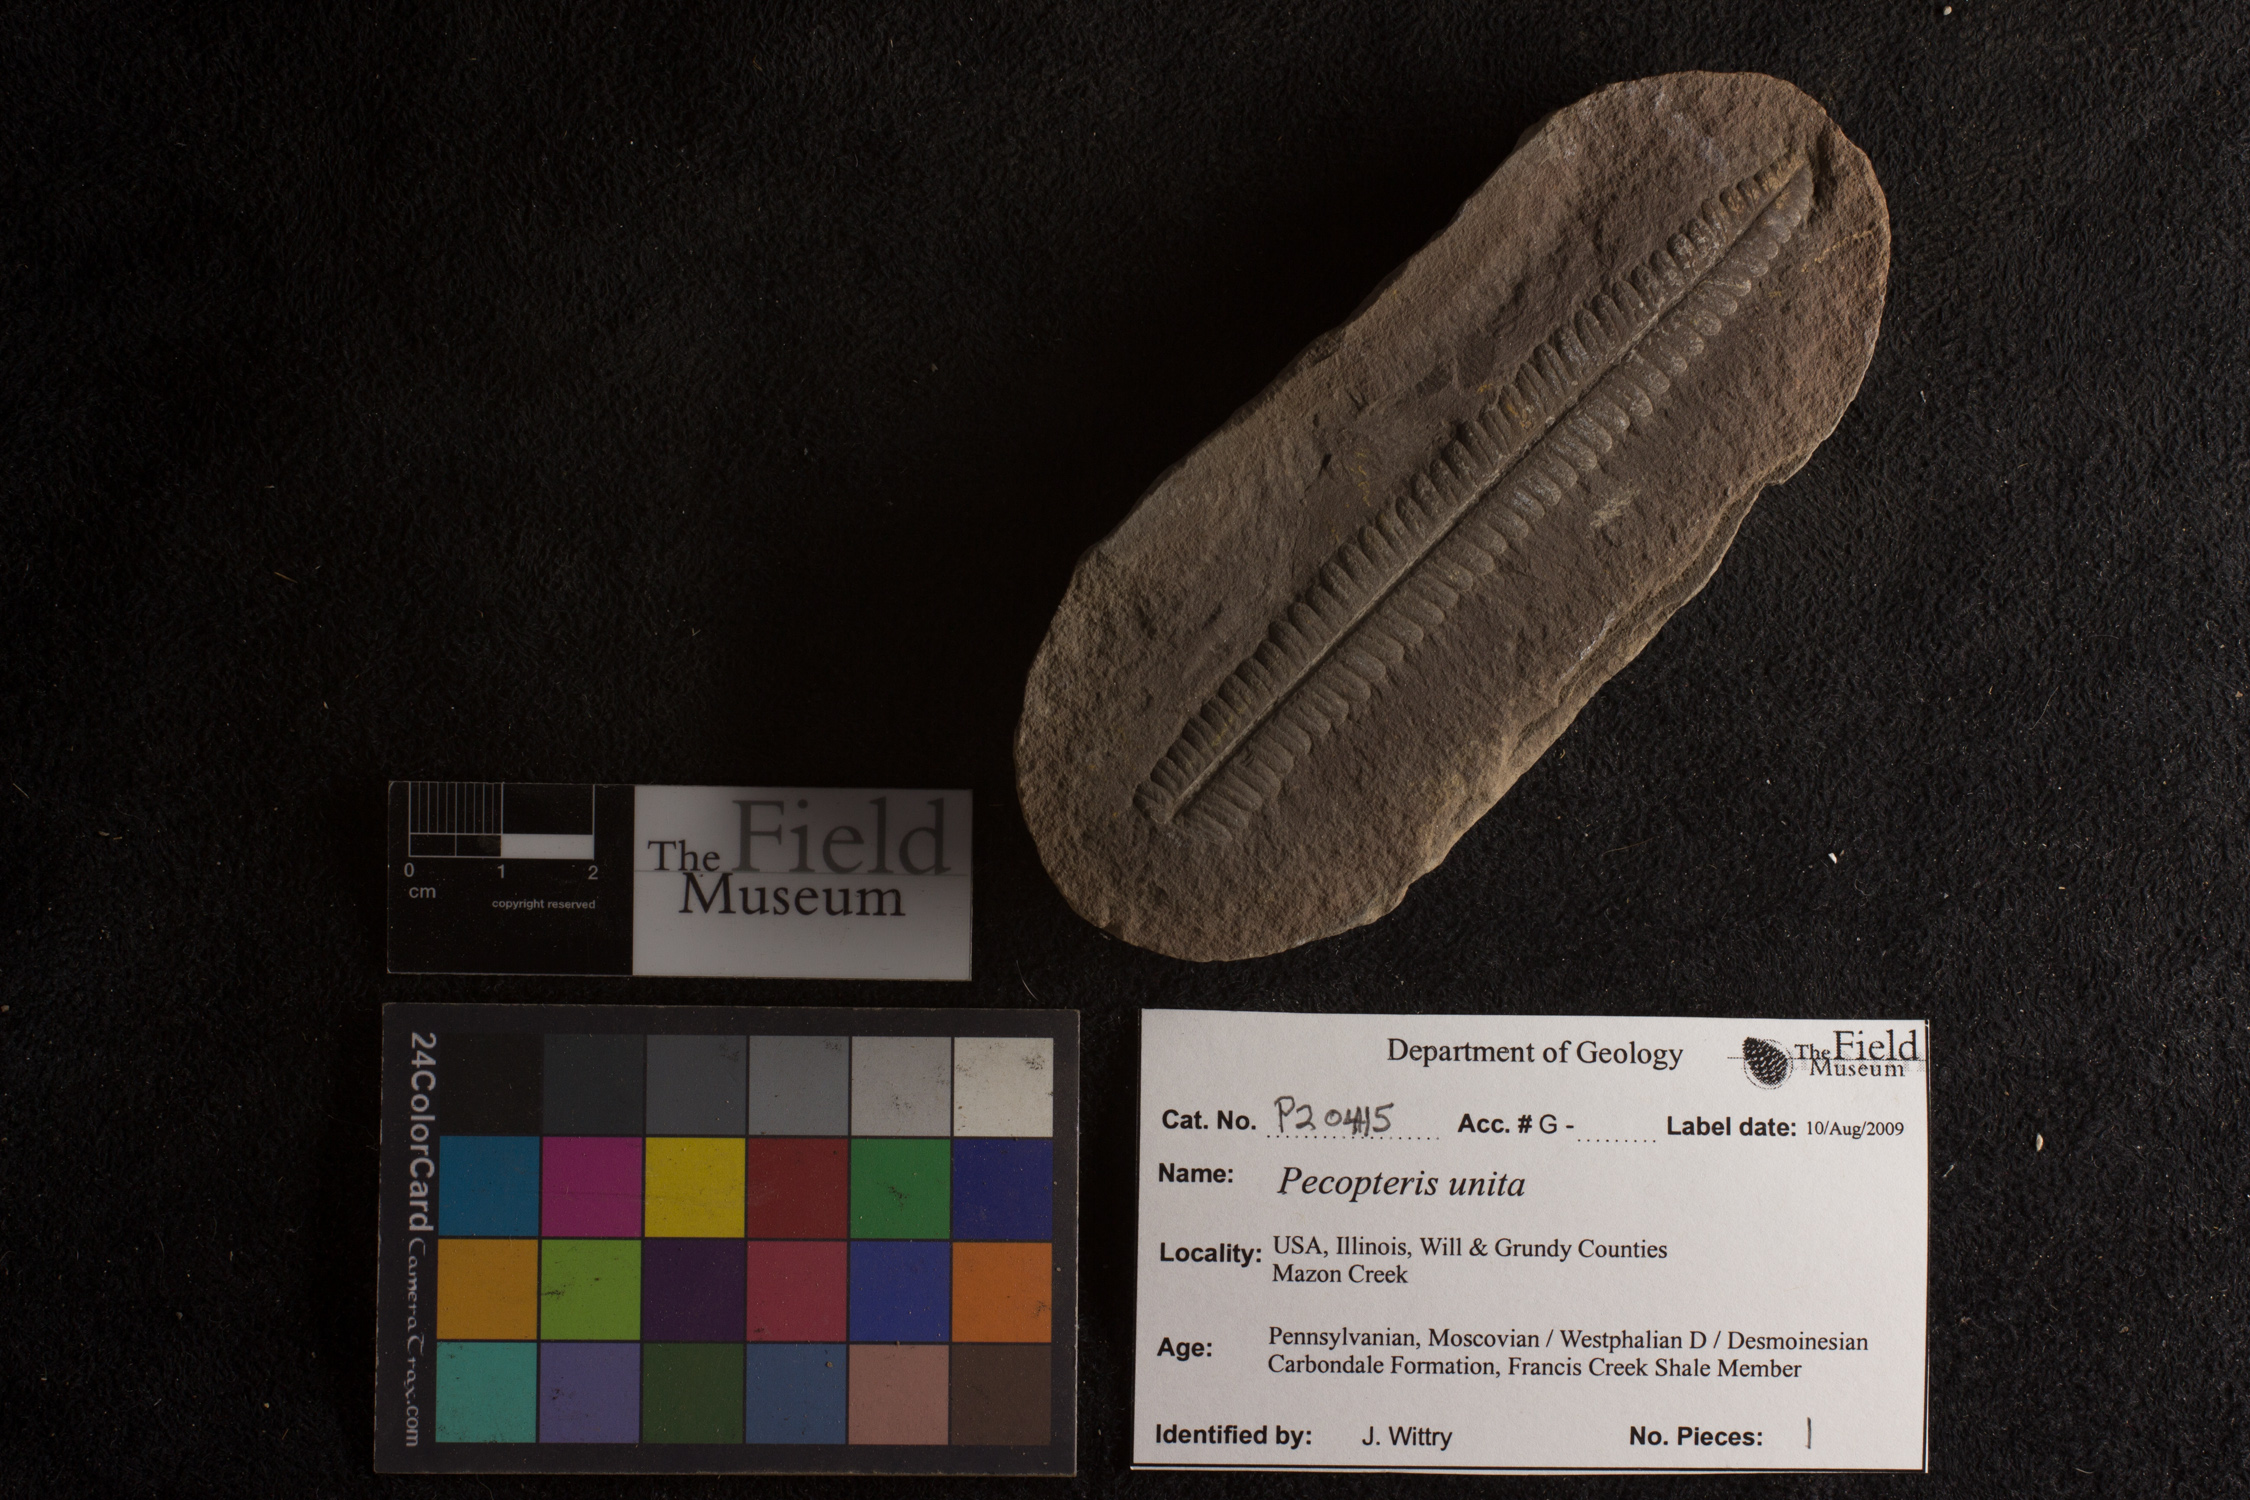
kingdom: Plantae
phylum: Tracheophyta
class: Polypodiopsida
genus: Diplazites
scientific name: Diplazites
